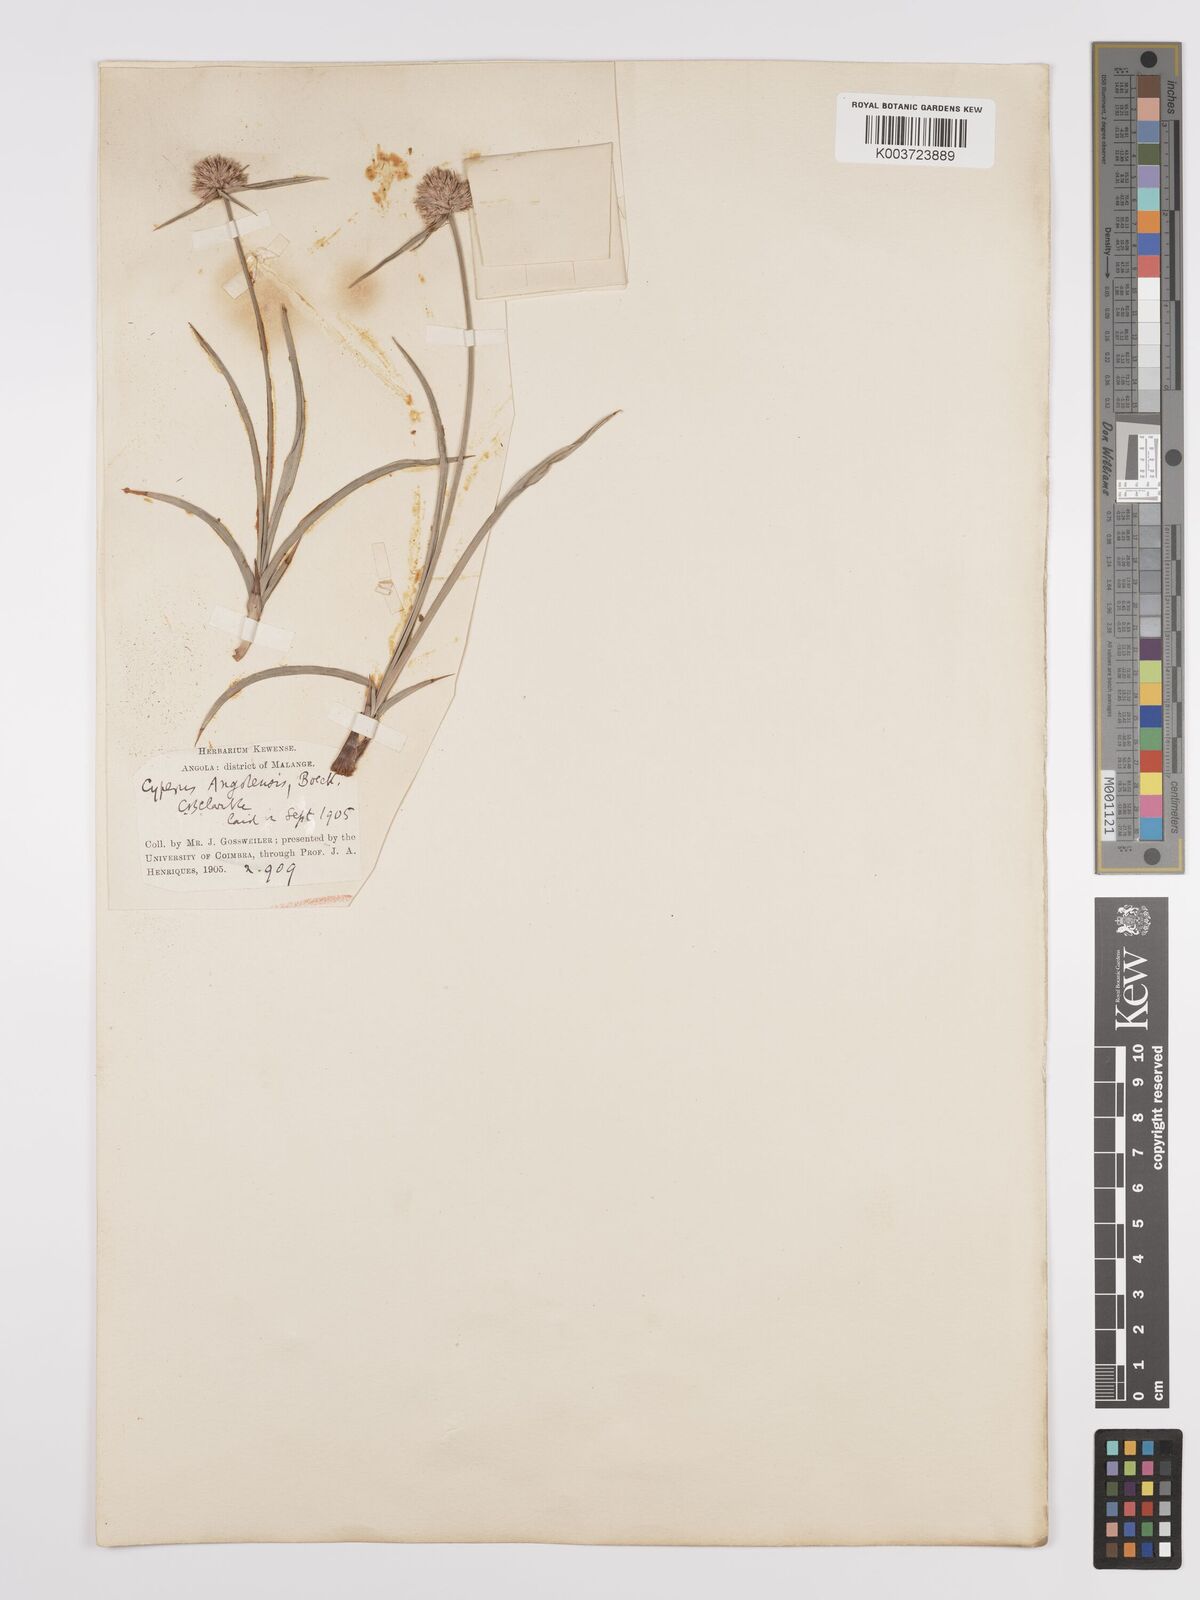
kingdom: Plantae
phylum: Tracheophyta
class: Liliopsida
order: Poales
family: Cyperaceae
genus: Cyperus
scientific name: Cyperus angolensis
